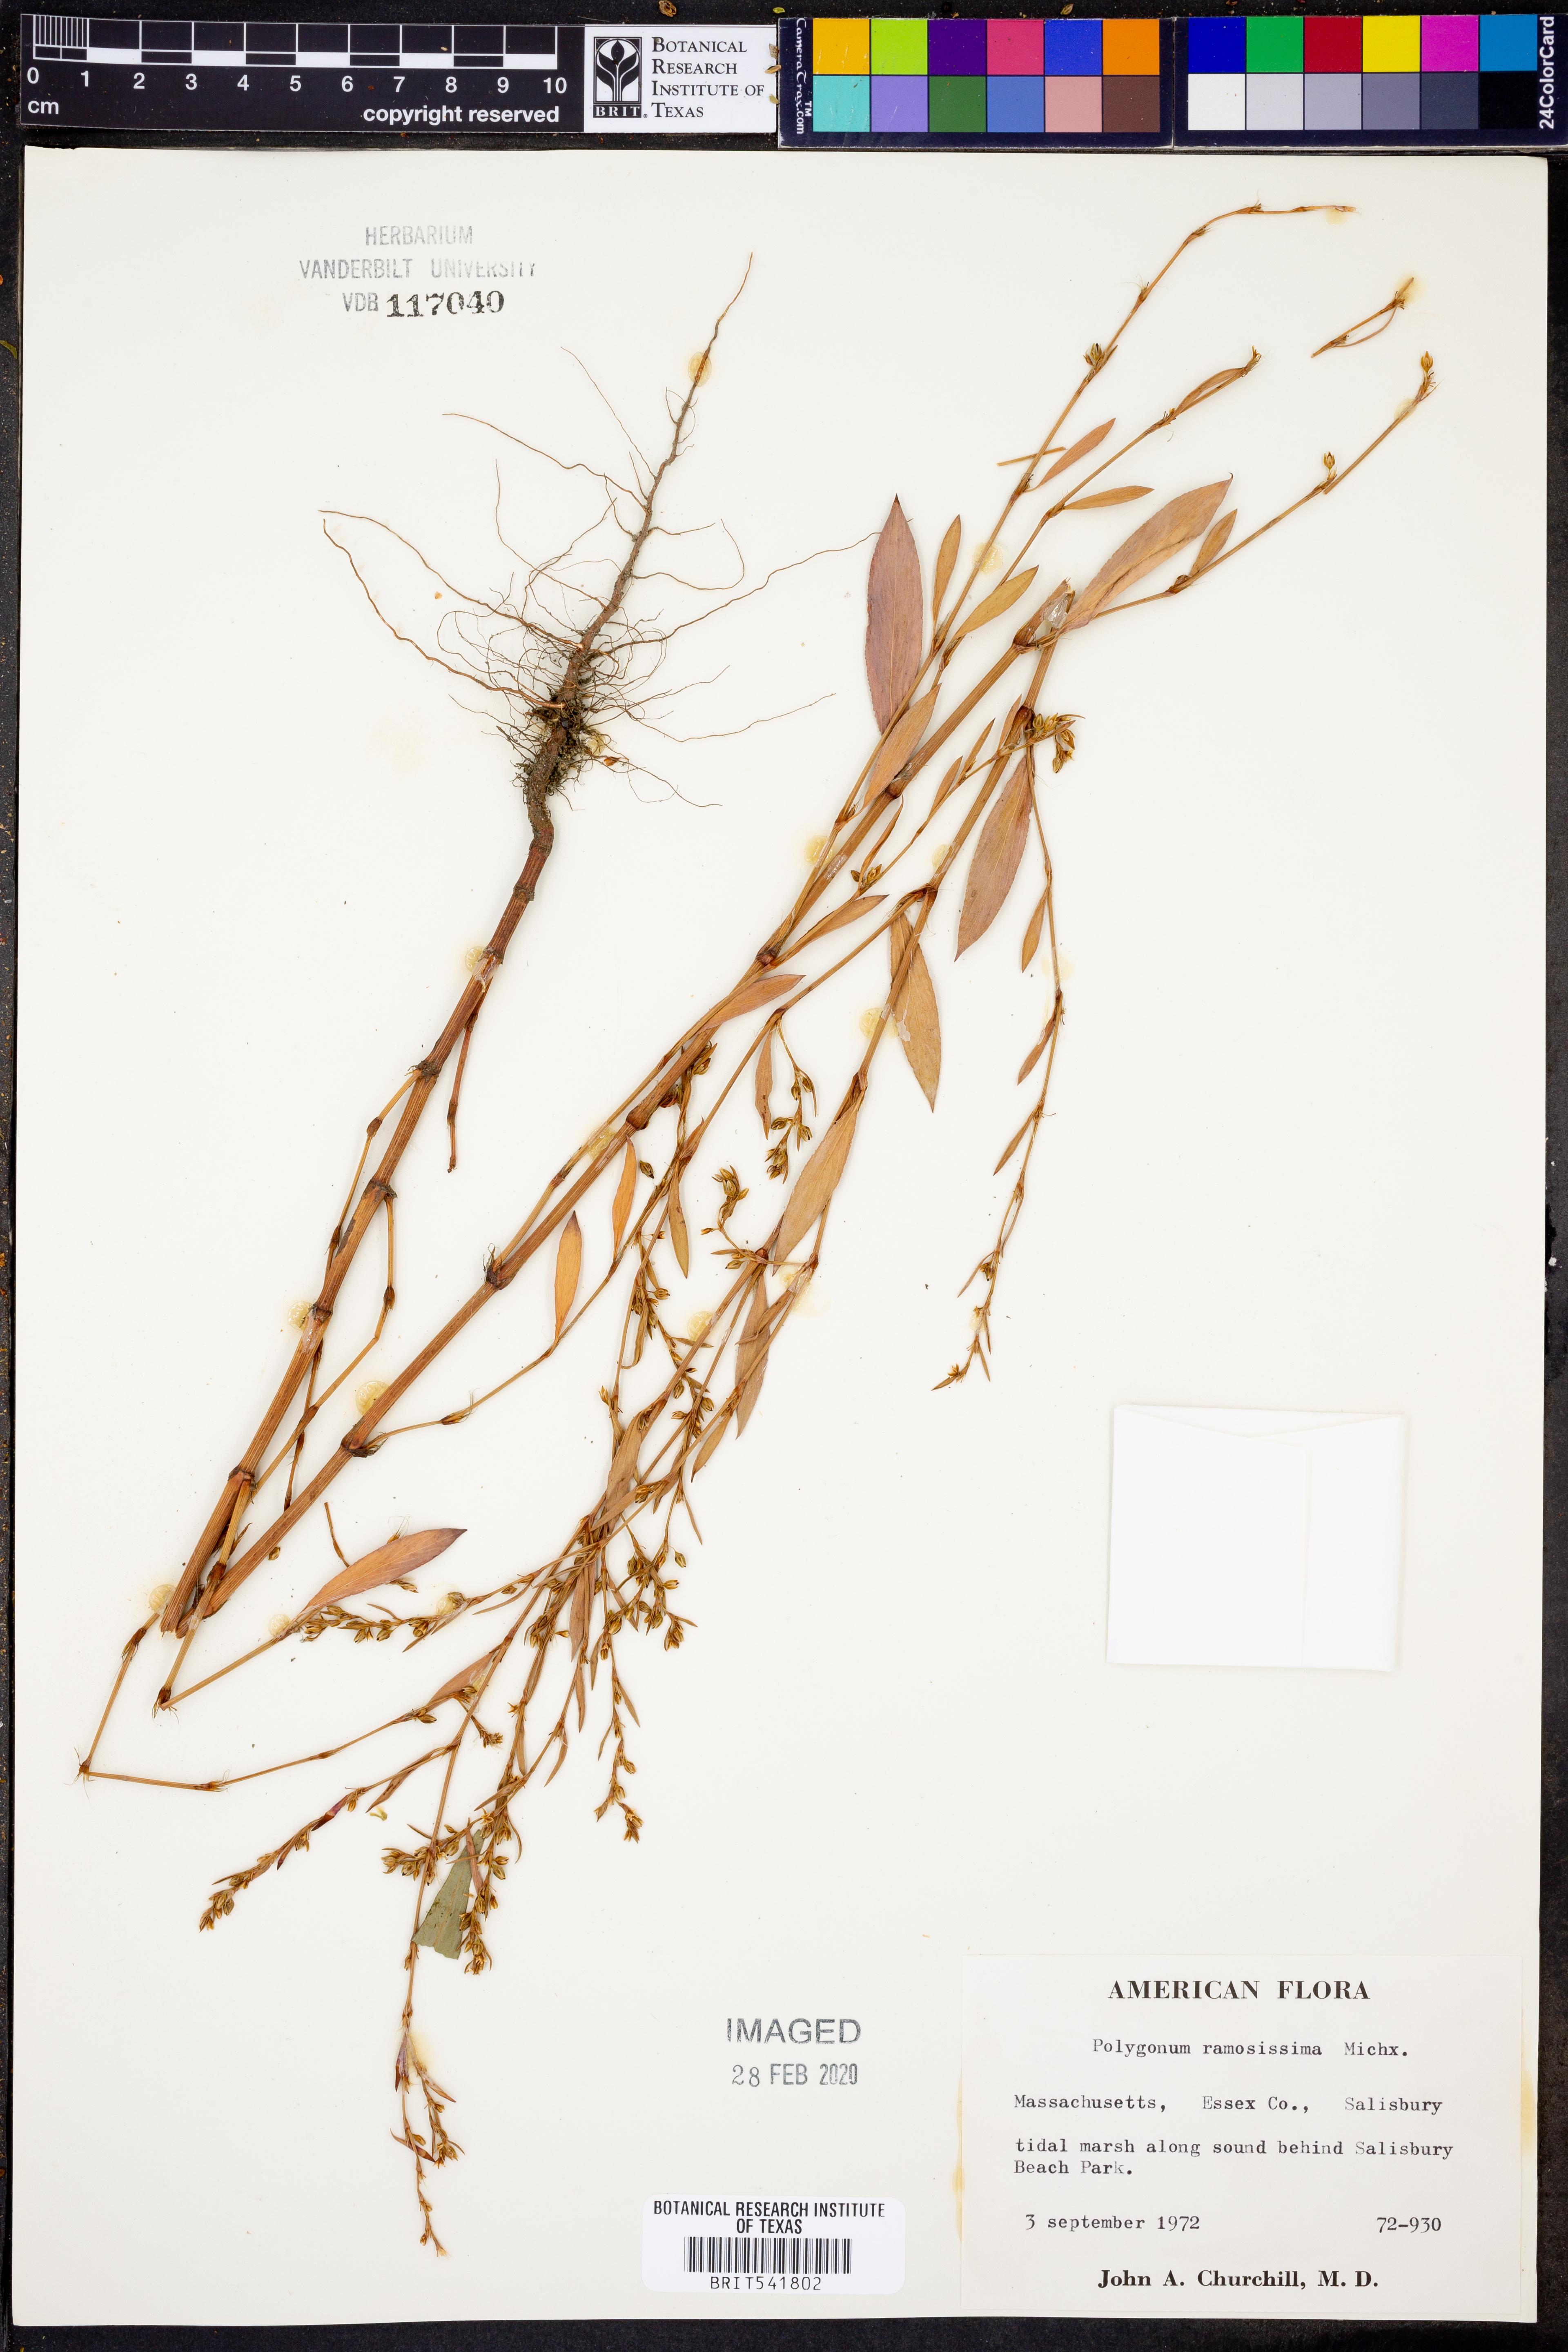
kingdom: Plantae
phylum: Tracheophyta
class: Magnoliopsida
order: Caryophyllales
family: Polygonaceae
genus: Polygonum
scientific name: Polygonum ramosissimum
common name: Bushy knotweed
